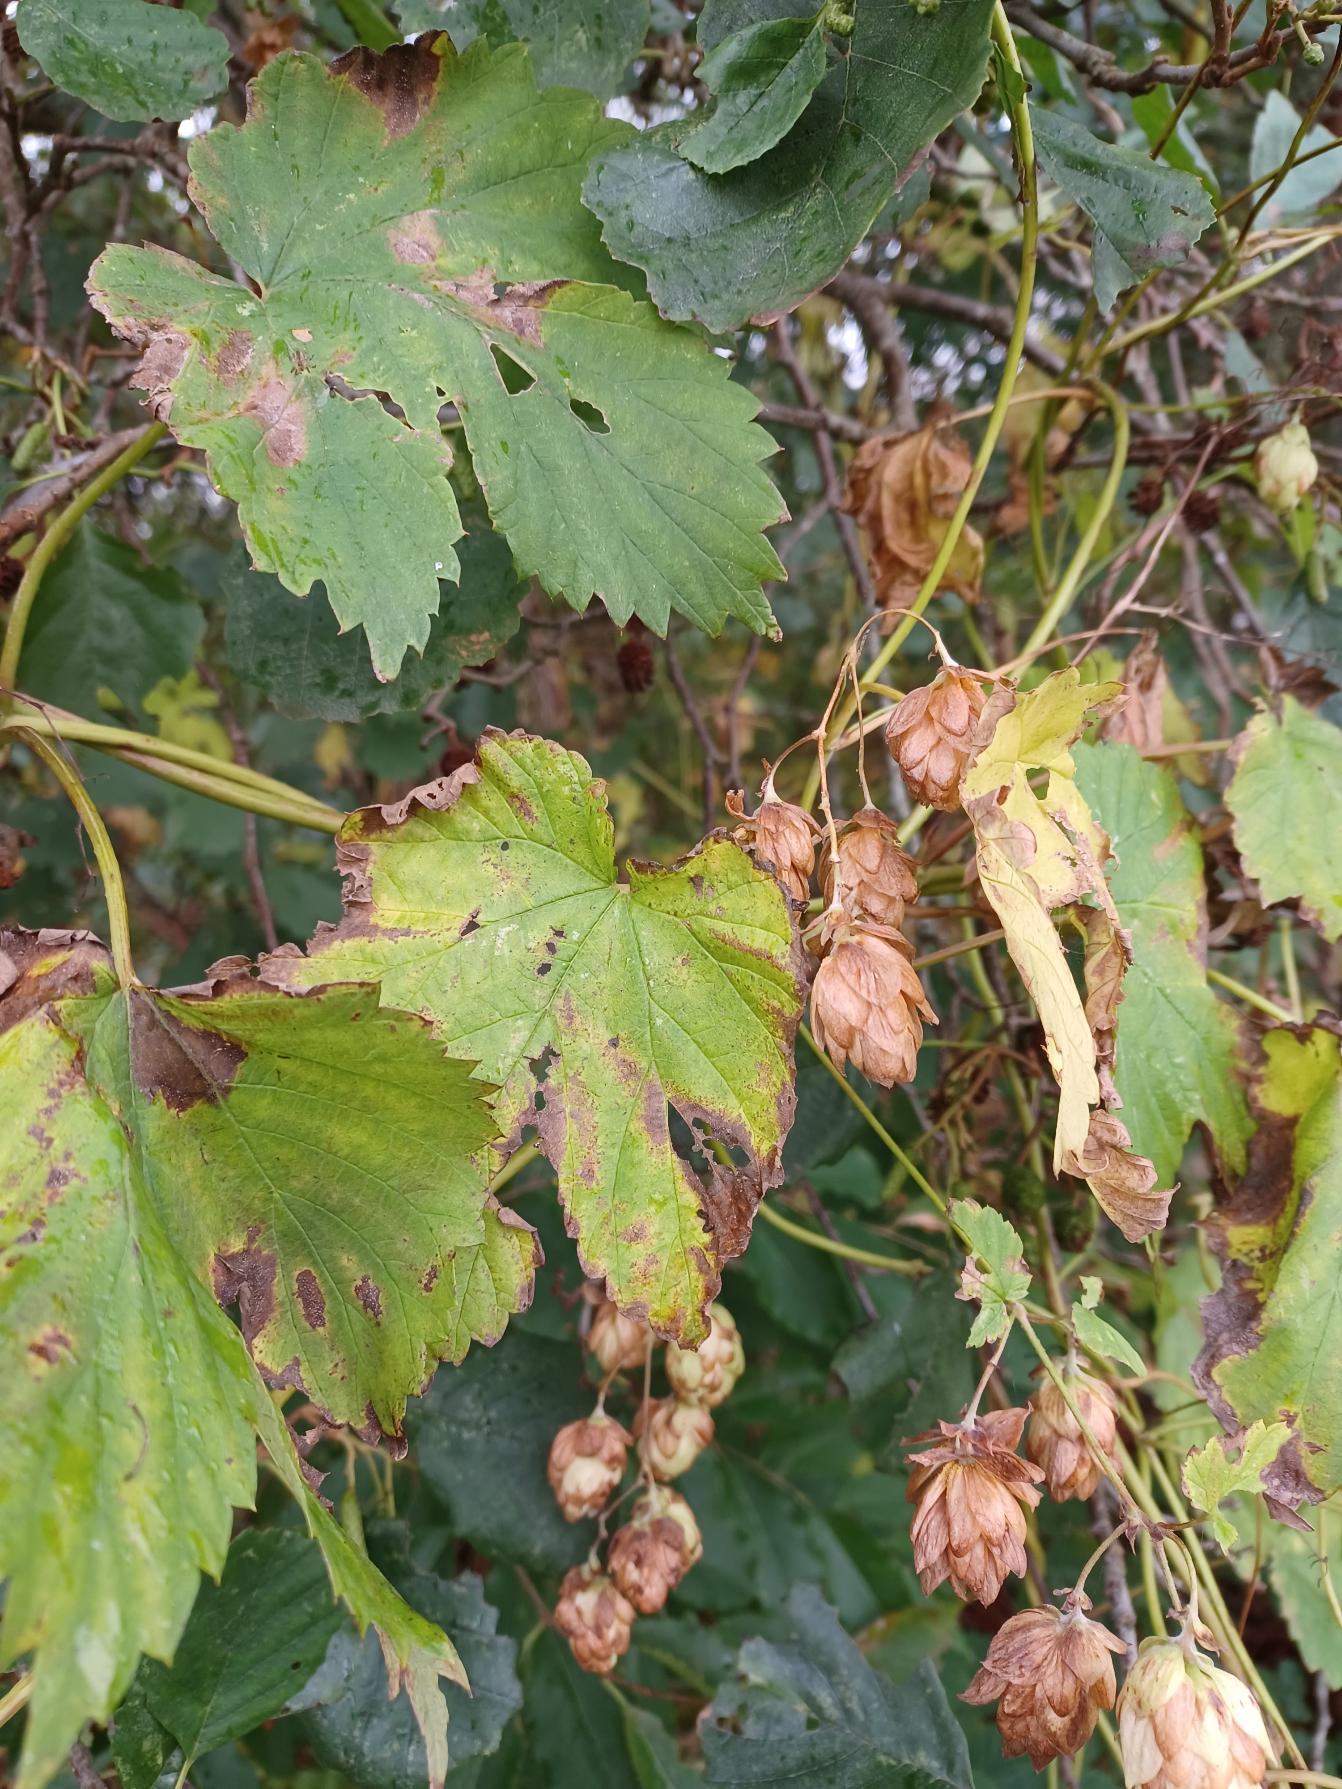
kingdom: Plantae
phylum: Tracheophyta
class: Magnoliopsida
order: Rosales
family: Cannabaceae
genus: Humulus
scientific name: Humulus lupulus
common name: Humle
